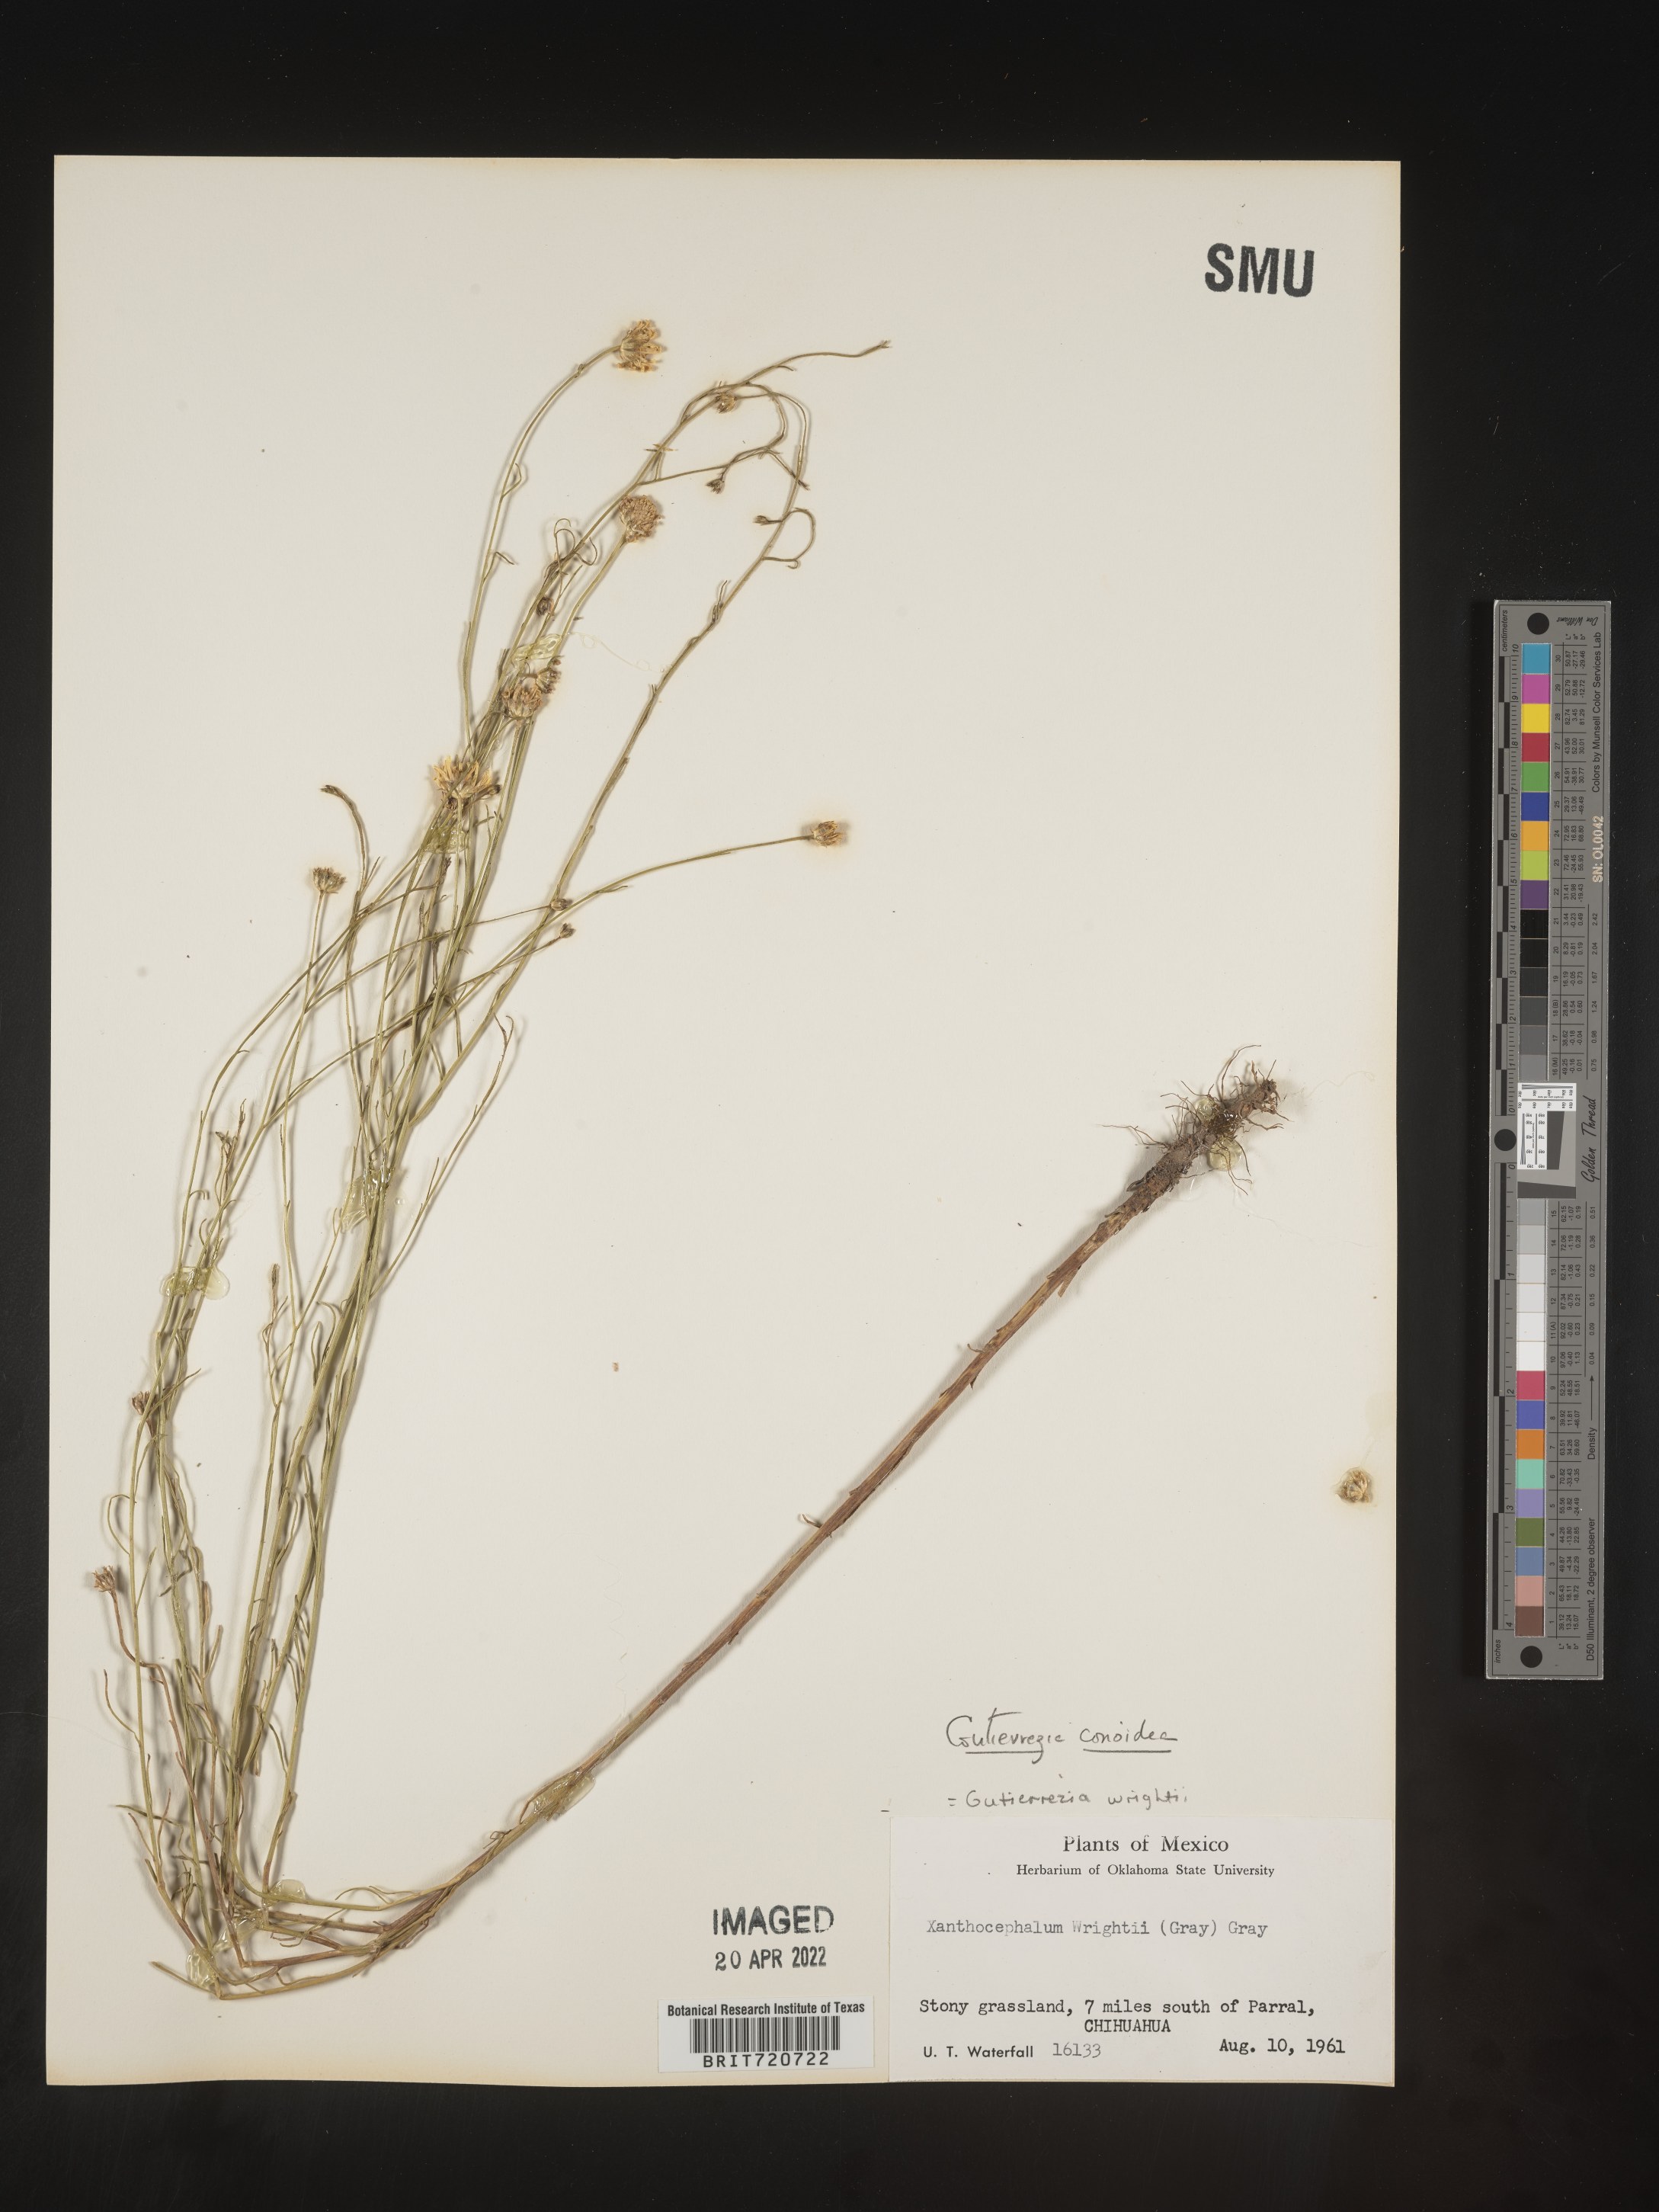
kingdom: Plantae
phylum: Tracheophyta
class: Magnoliopsida
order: Asterales
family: Asteraceae
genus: Gutierrezia
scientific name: Gutierrezia conoidea
